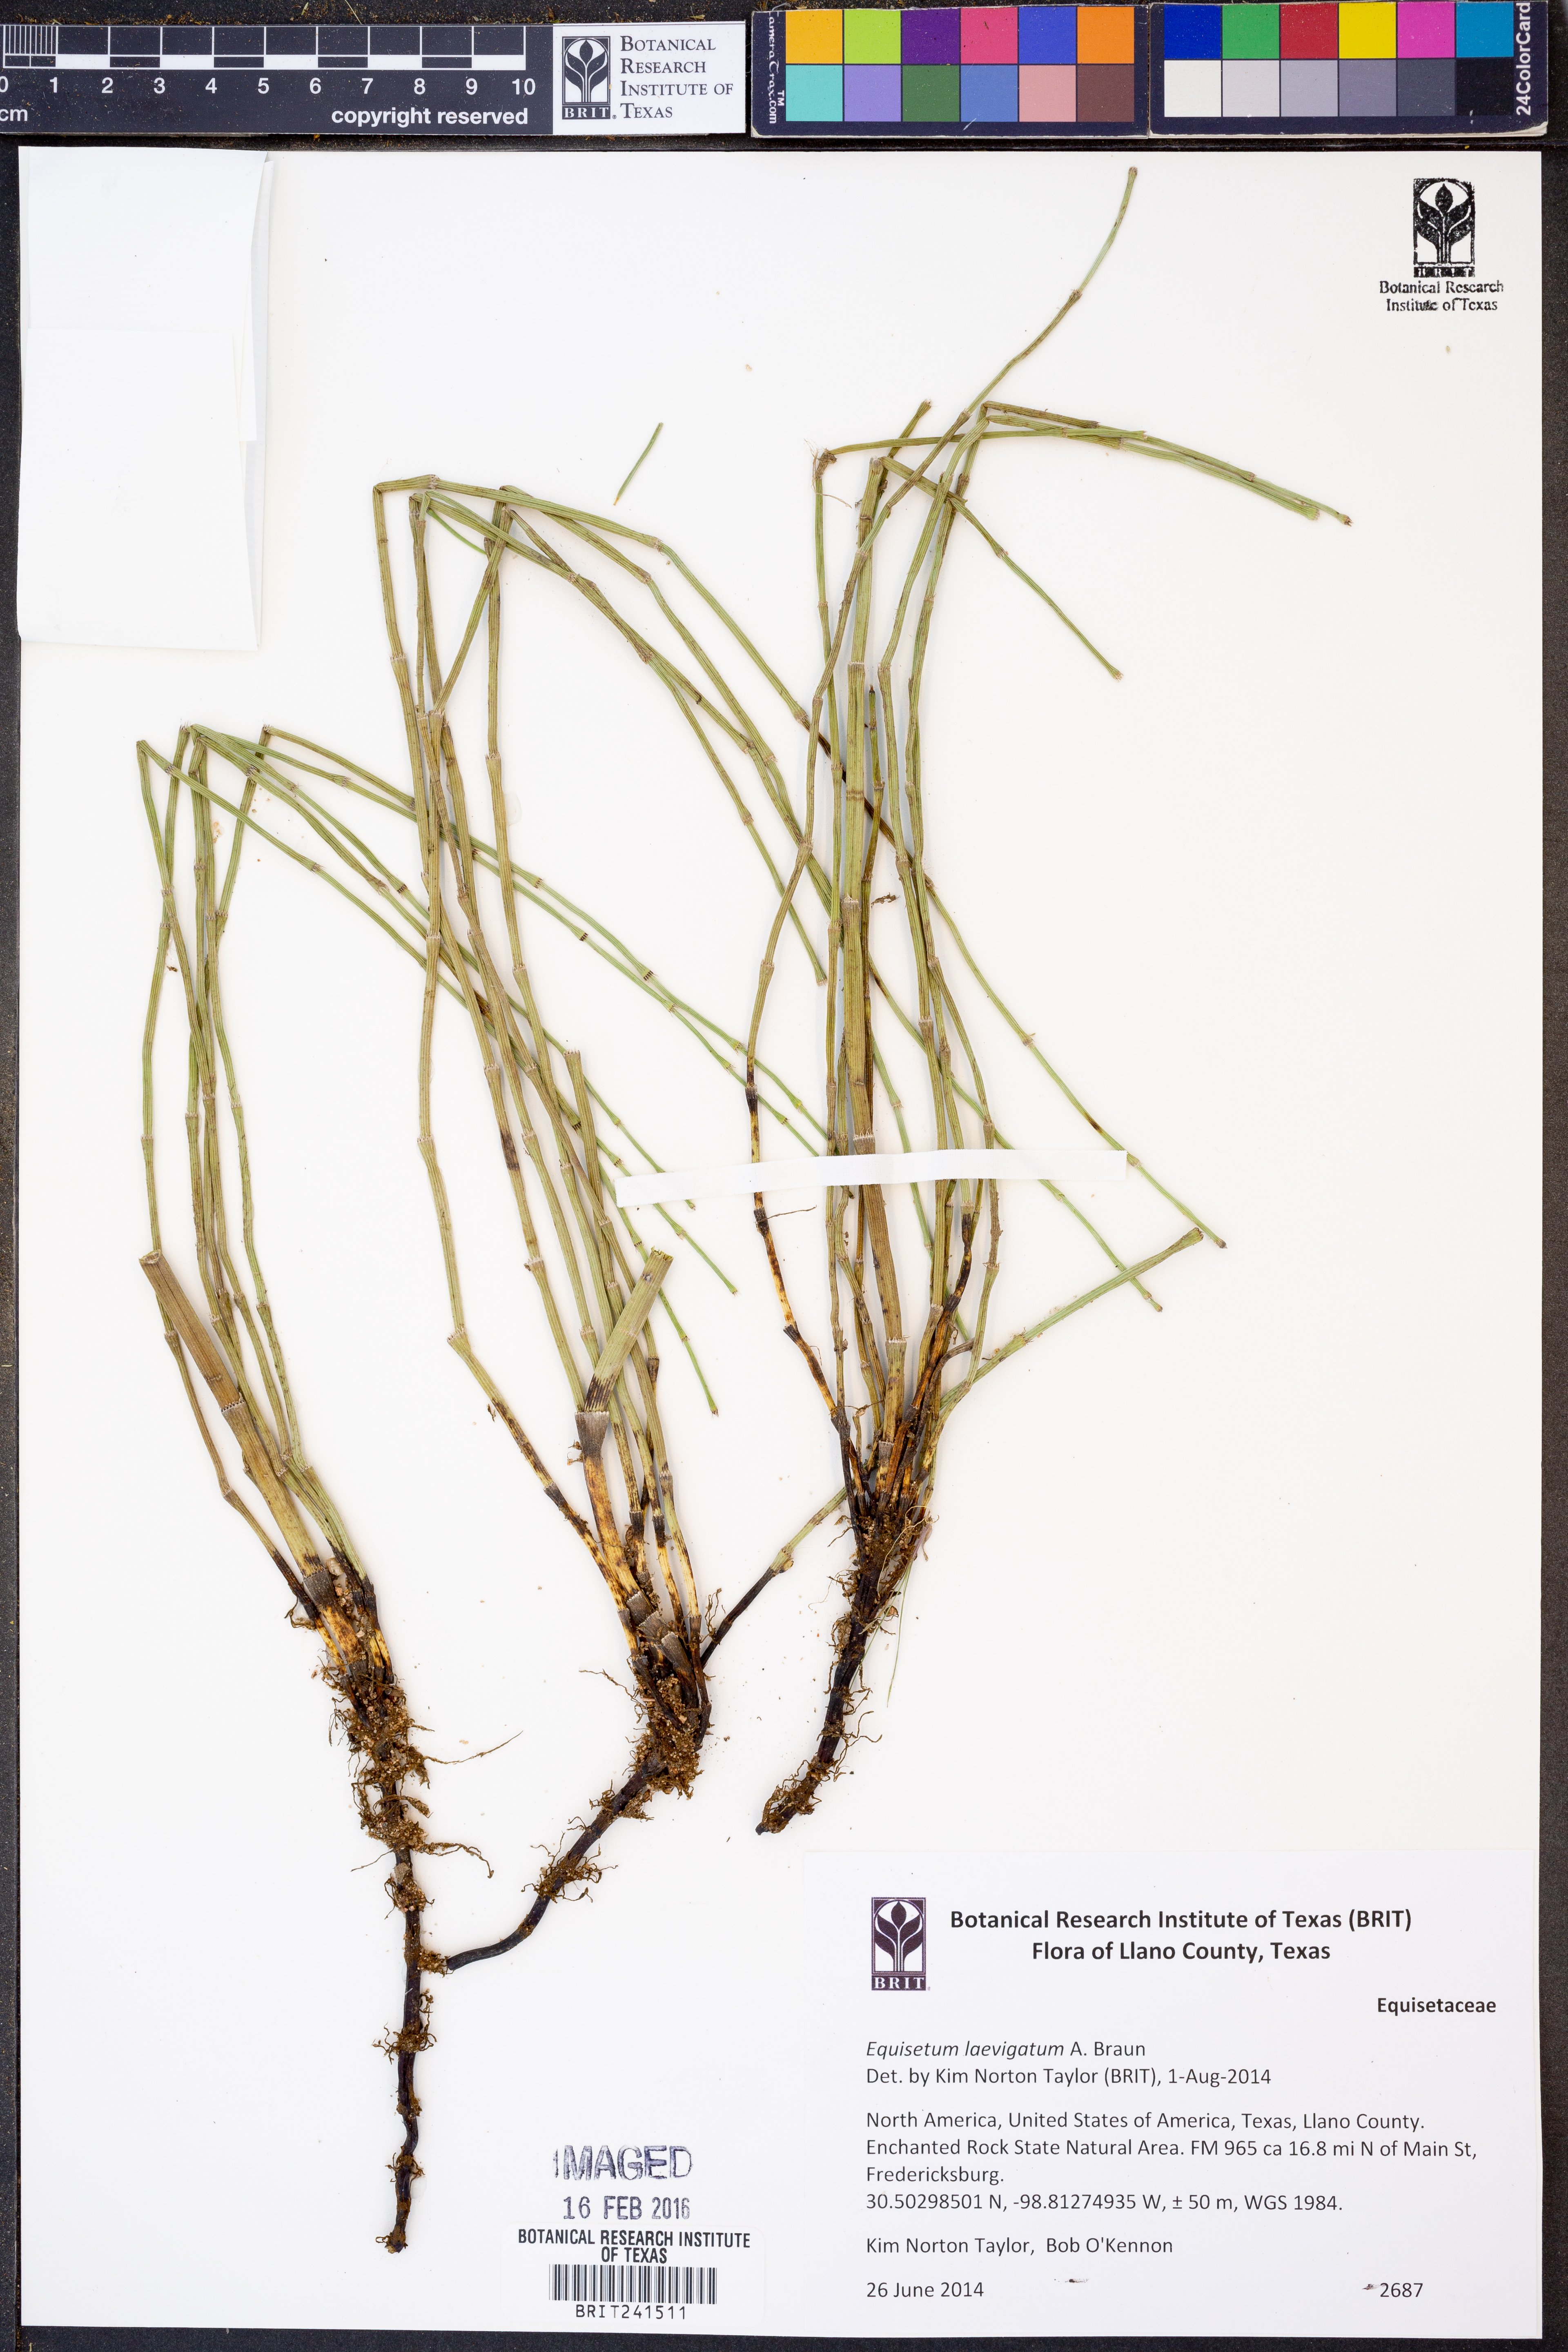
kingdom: Plantae
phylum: Tracheophyta
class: Polypodiopsida
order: Equisetales
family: Equisetaceae
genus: Equisetum
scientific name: Equisetum laevigatum
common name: Smooth scouring-rush
